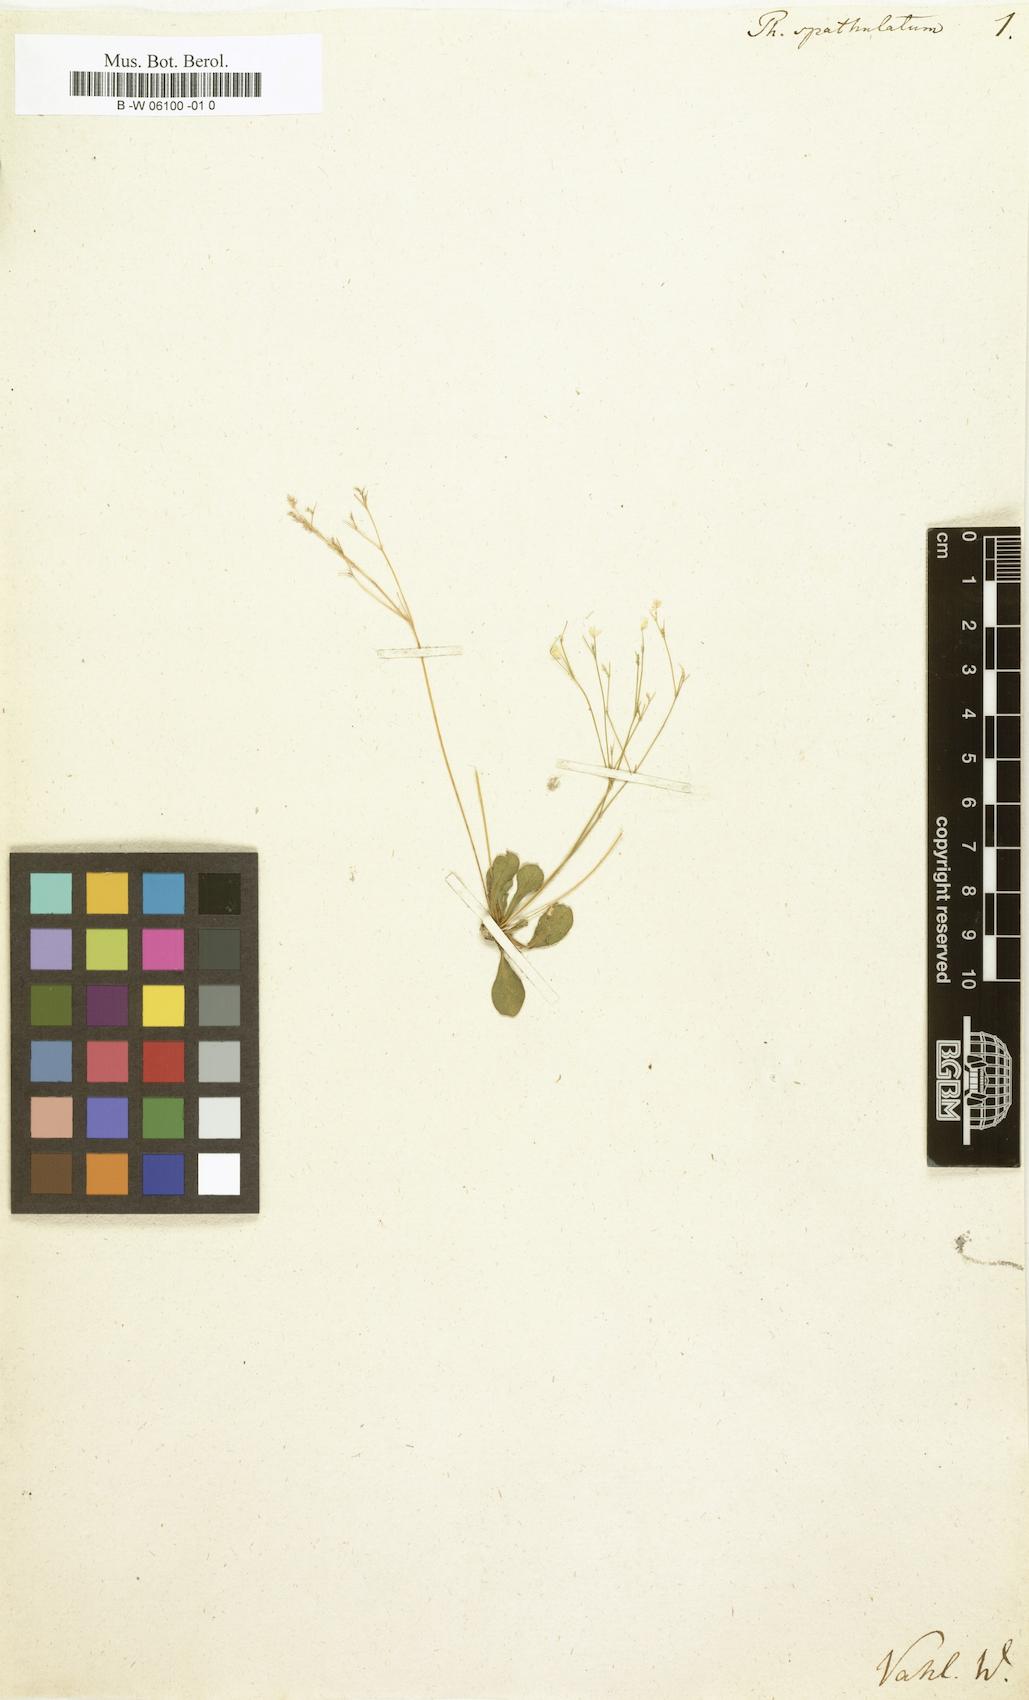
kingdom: Plantae
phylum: Tracheophyta
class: Magnoliopsida
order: Caryophyllales
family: Molluginaceae
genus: Paramollugo
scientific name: Paramollugo nudicaulis
